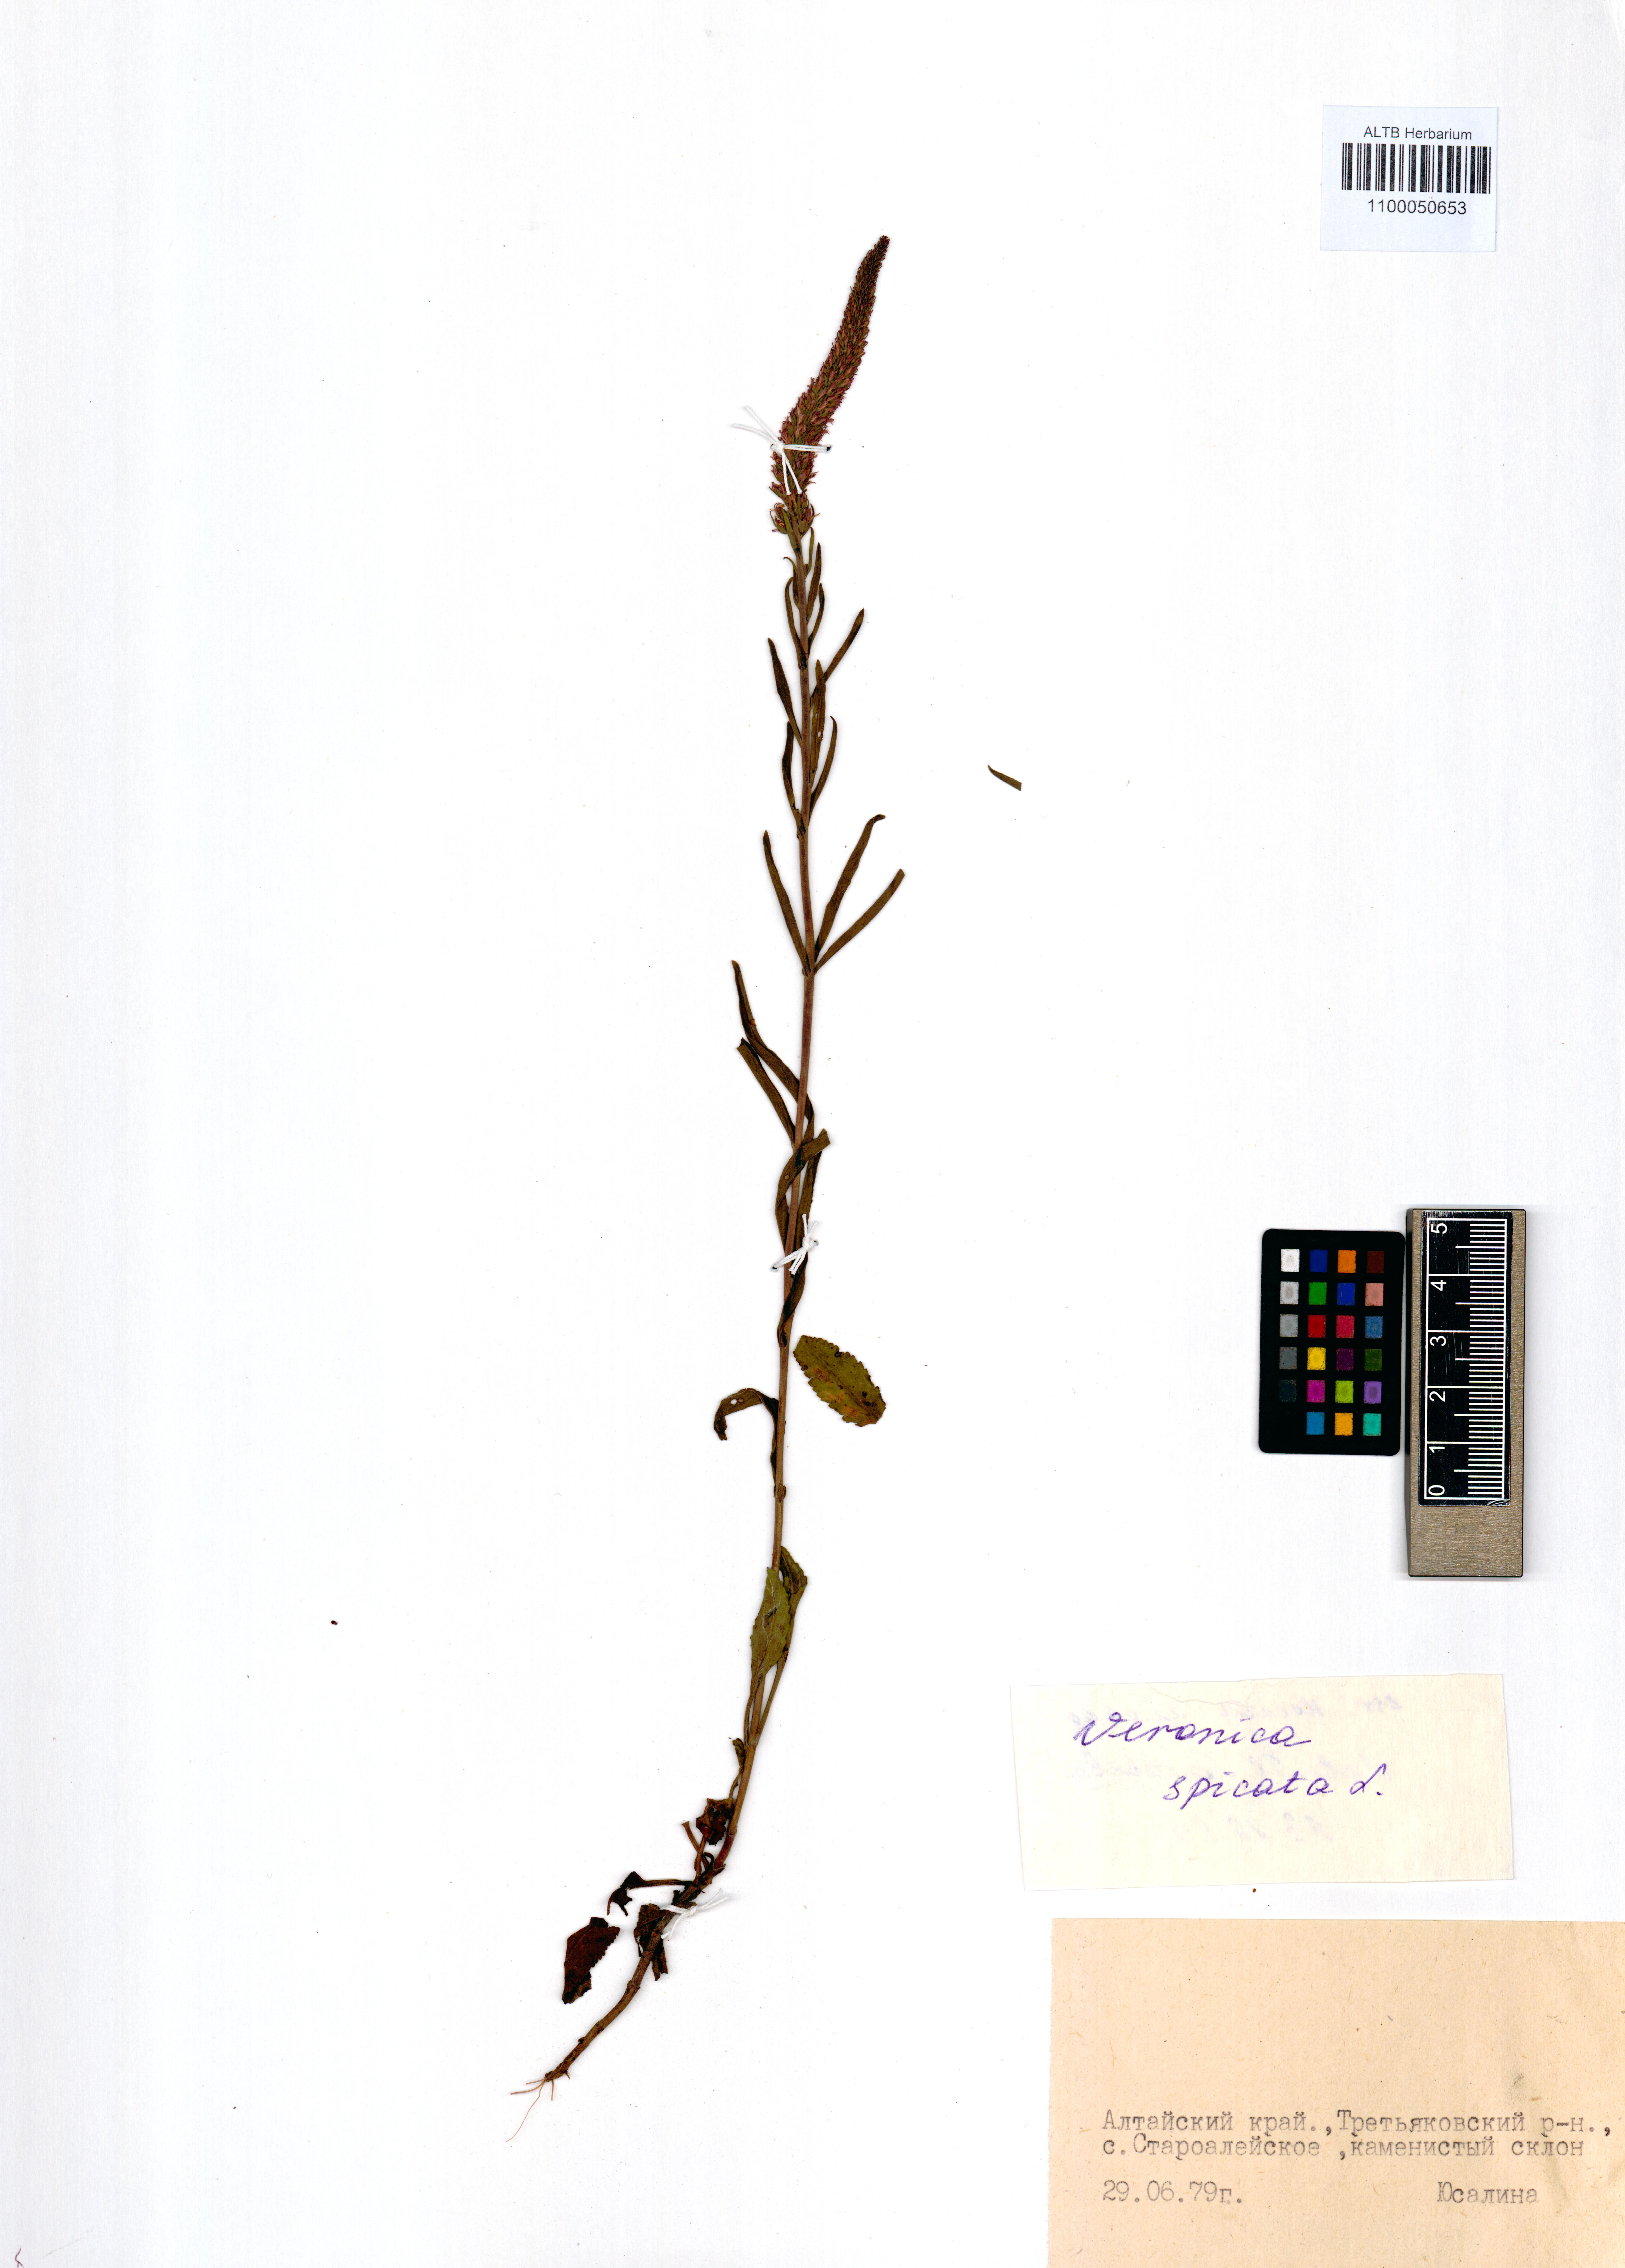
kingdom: Plantae
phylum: Tracheophyta
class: Magnoliopsida
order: Lamiales
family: Plantaginaceae
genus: Veronica
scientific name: Veronica spicata
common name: Spiked speedwell
